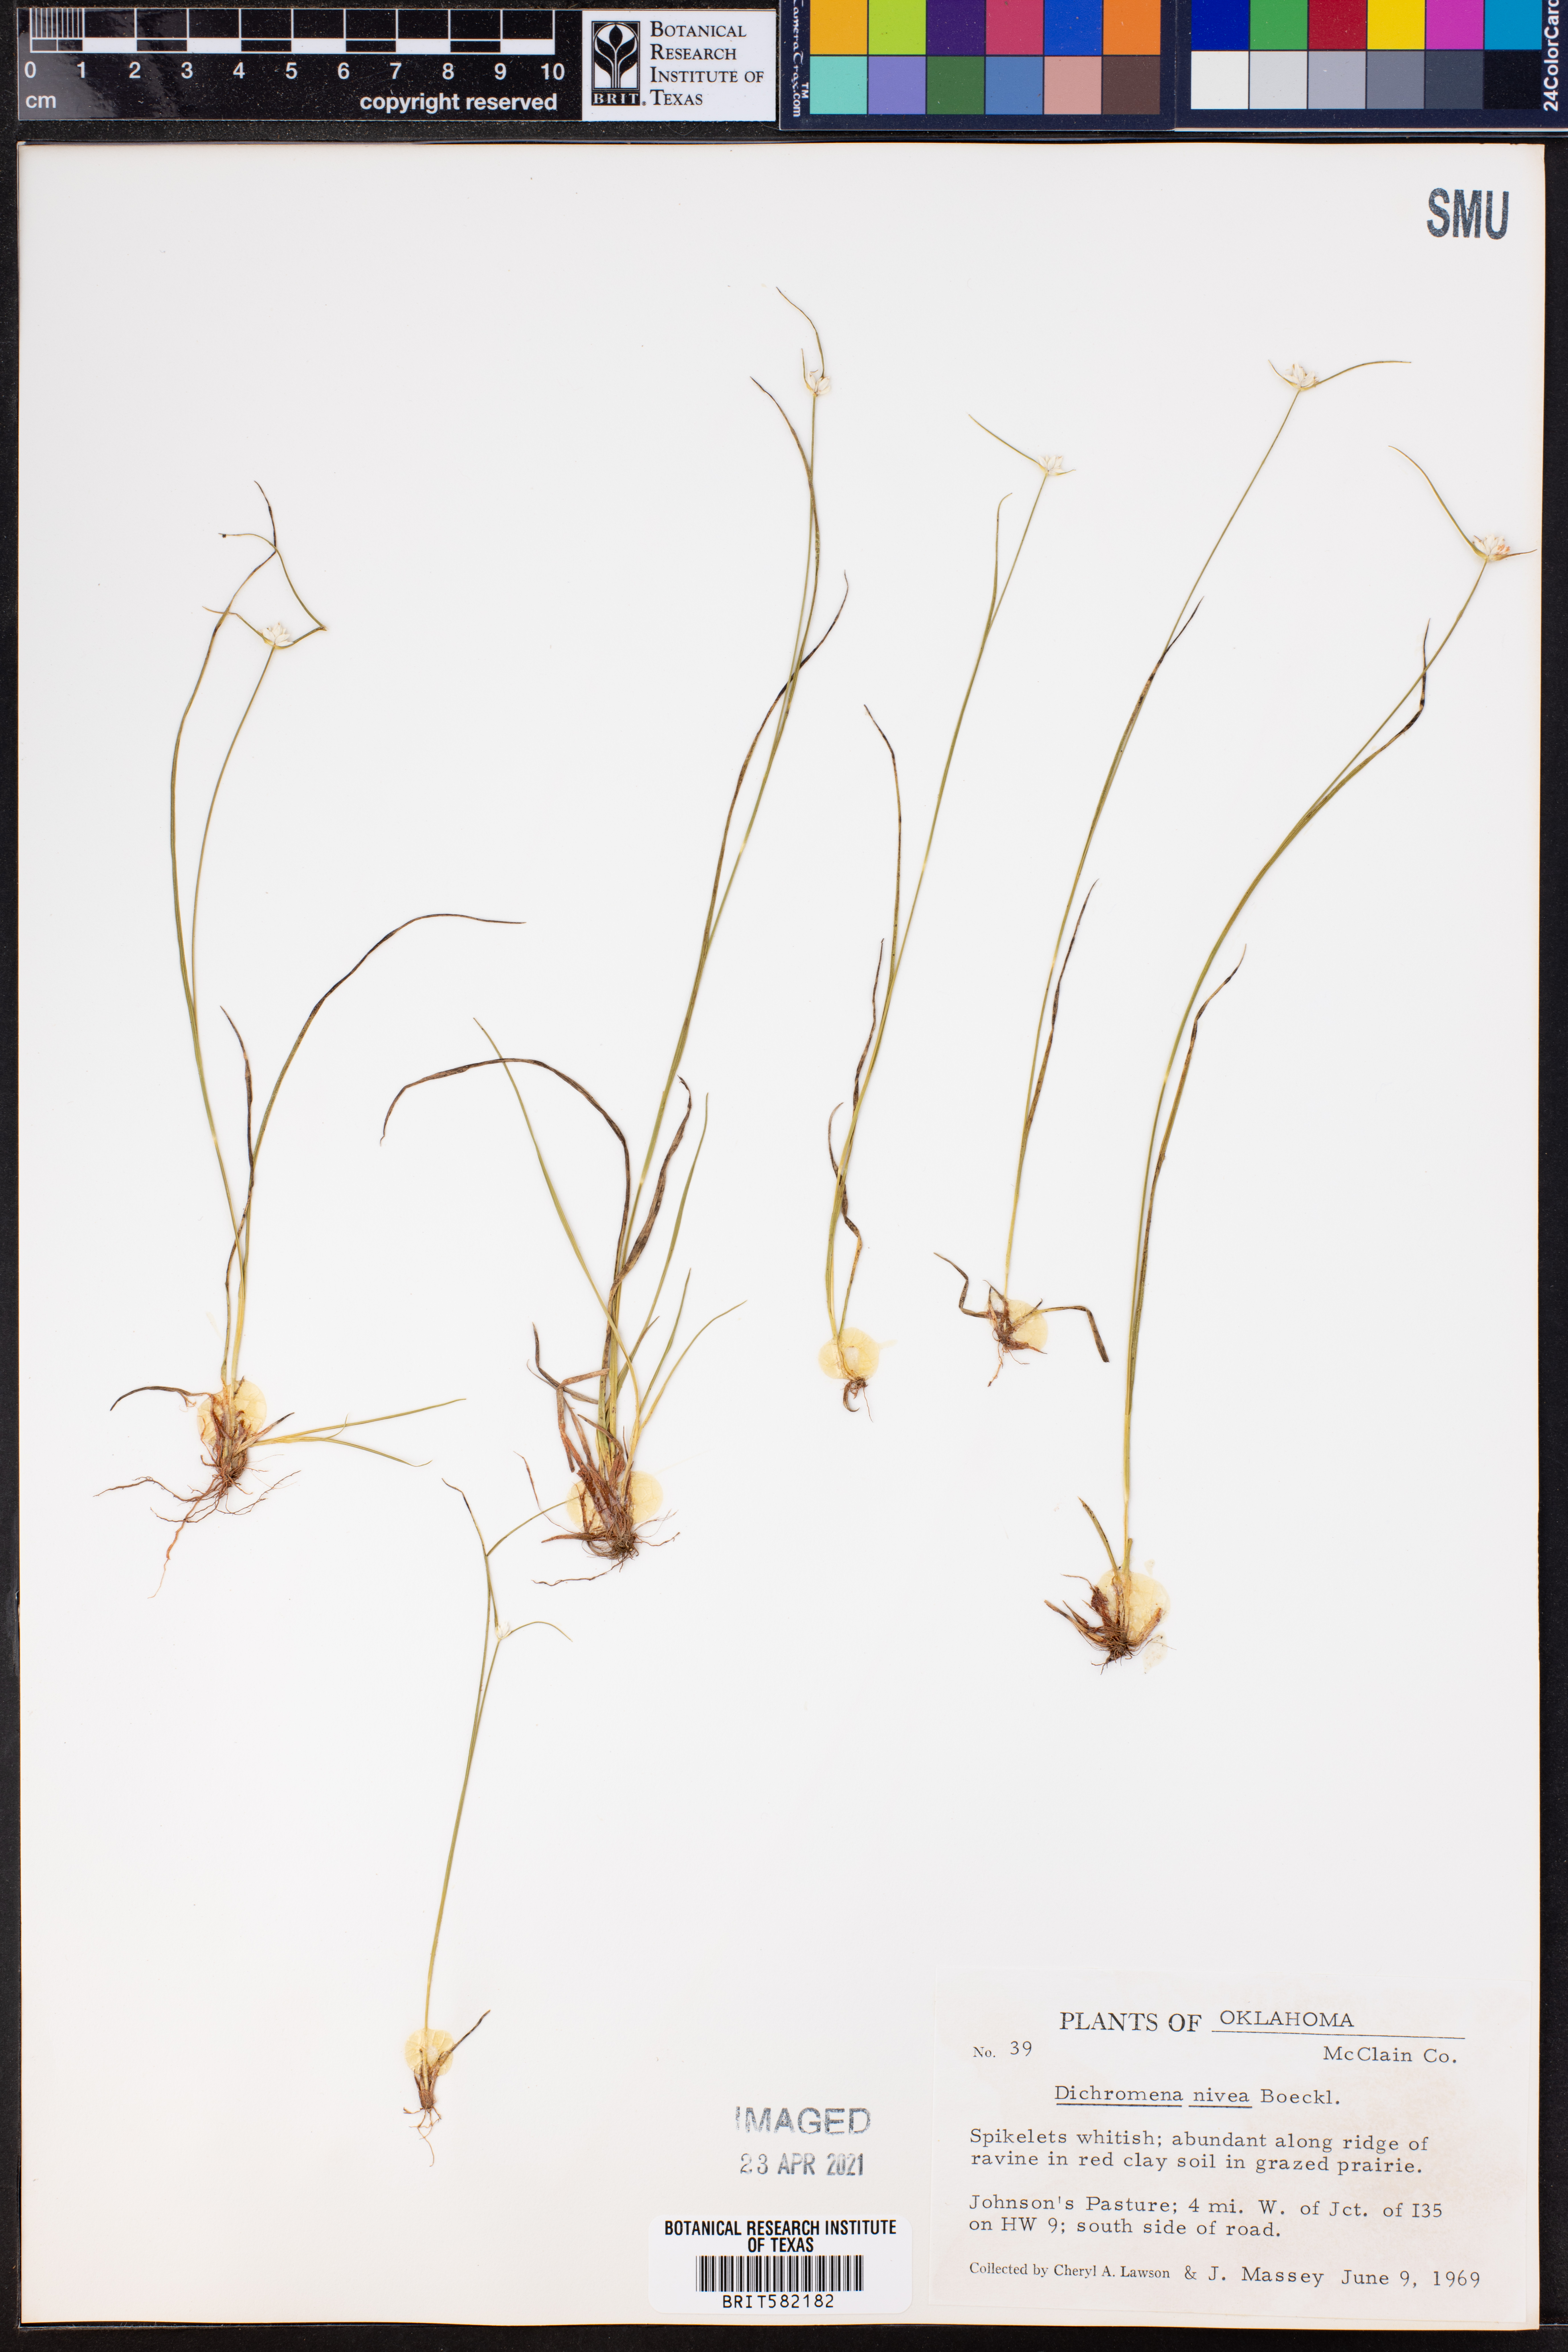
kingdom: Plantae
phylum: Tracheophyta
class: Liliopsida
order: Poales
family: Cyperaceae
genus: Rhynchospora
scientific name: Rhynchospora nivea
